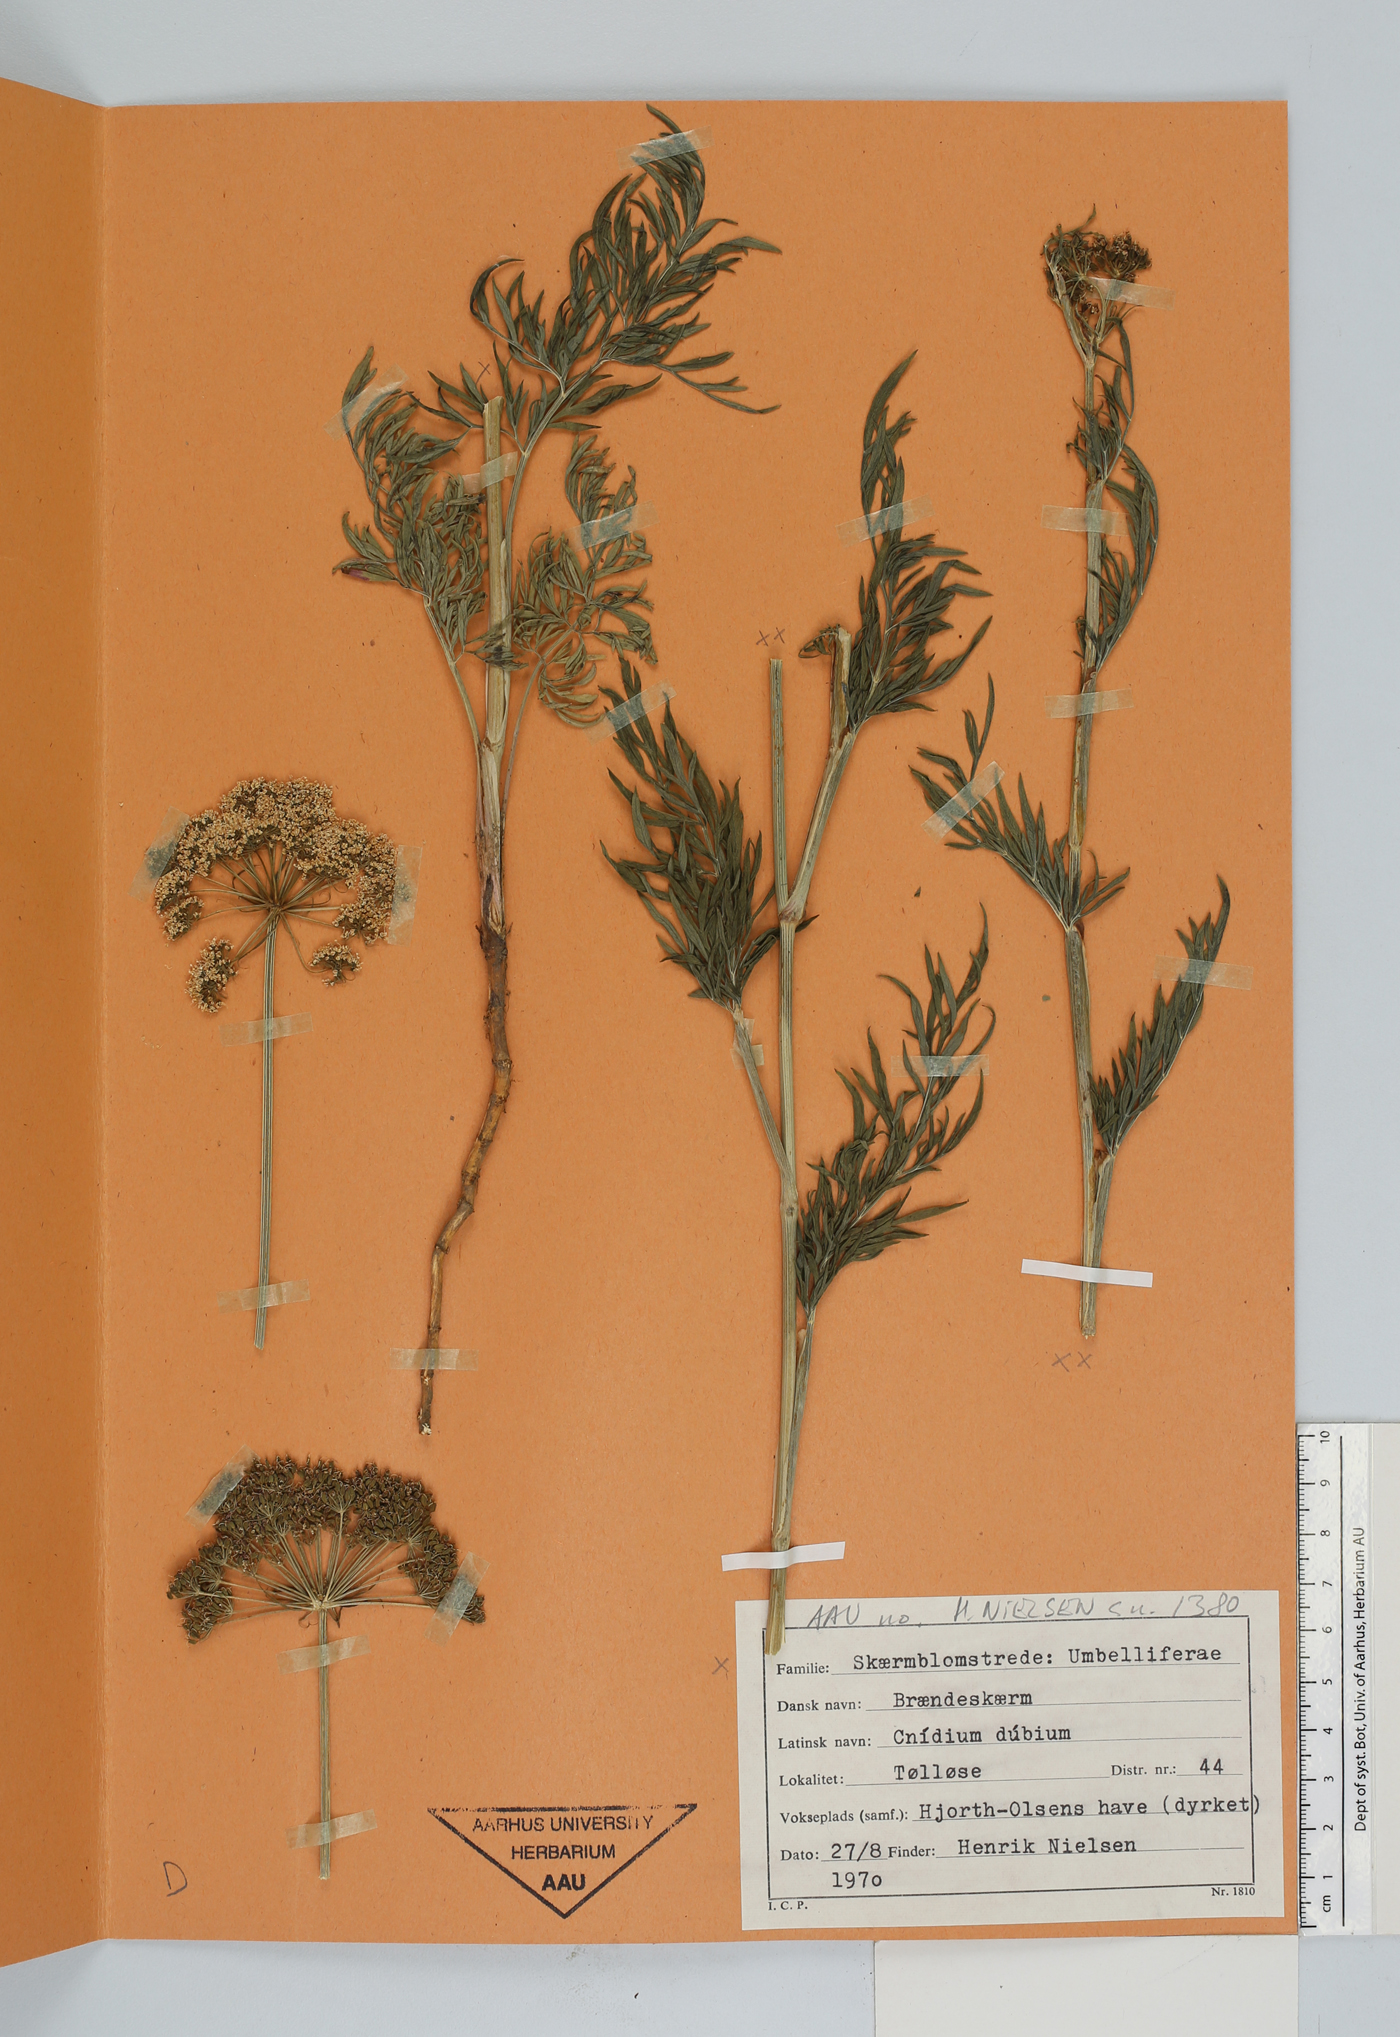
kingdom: Plantae
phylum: Tracheophyta
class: Magnoliopsida
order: Apiales
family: Apiaceae
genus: Kadenia
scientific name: Kadenia dubia
